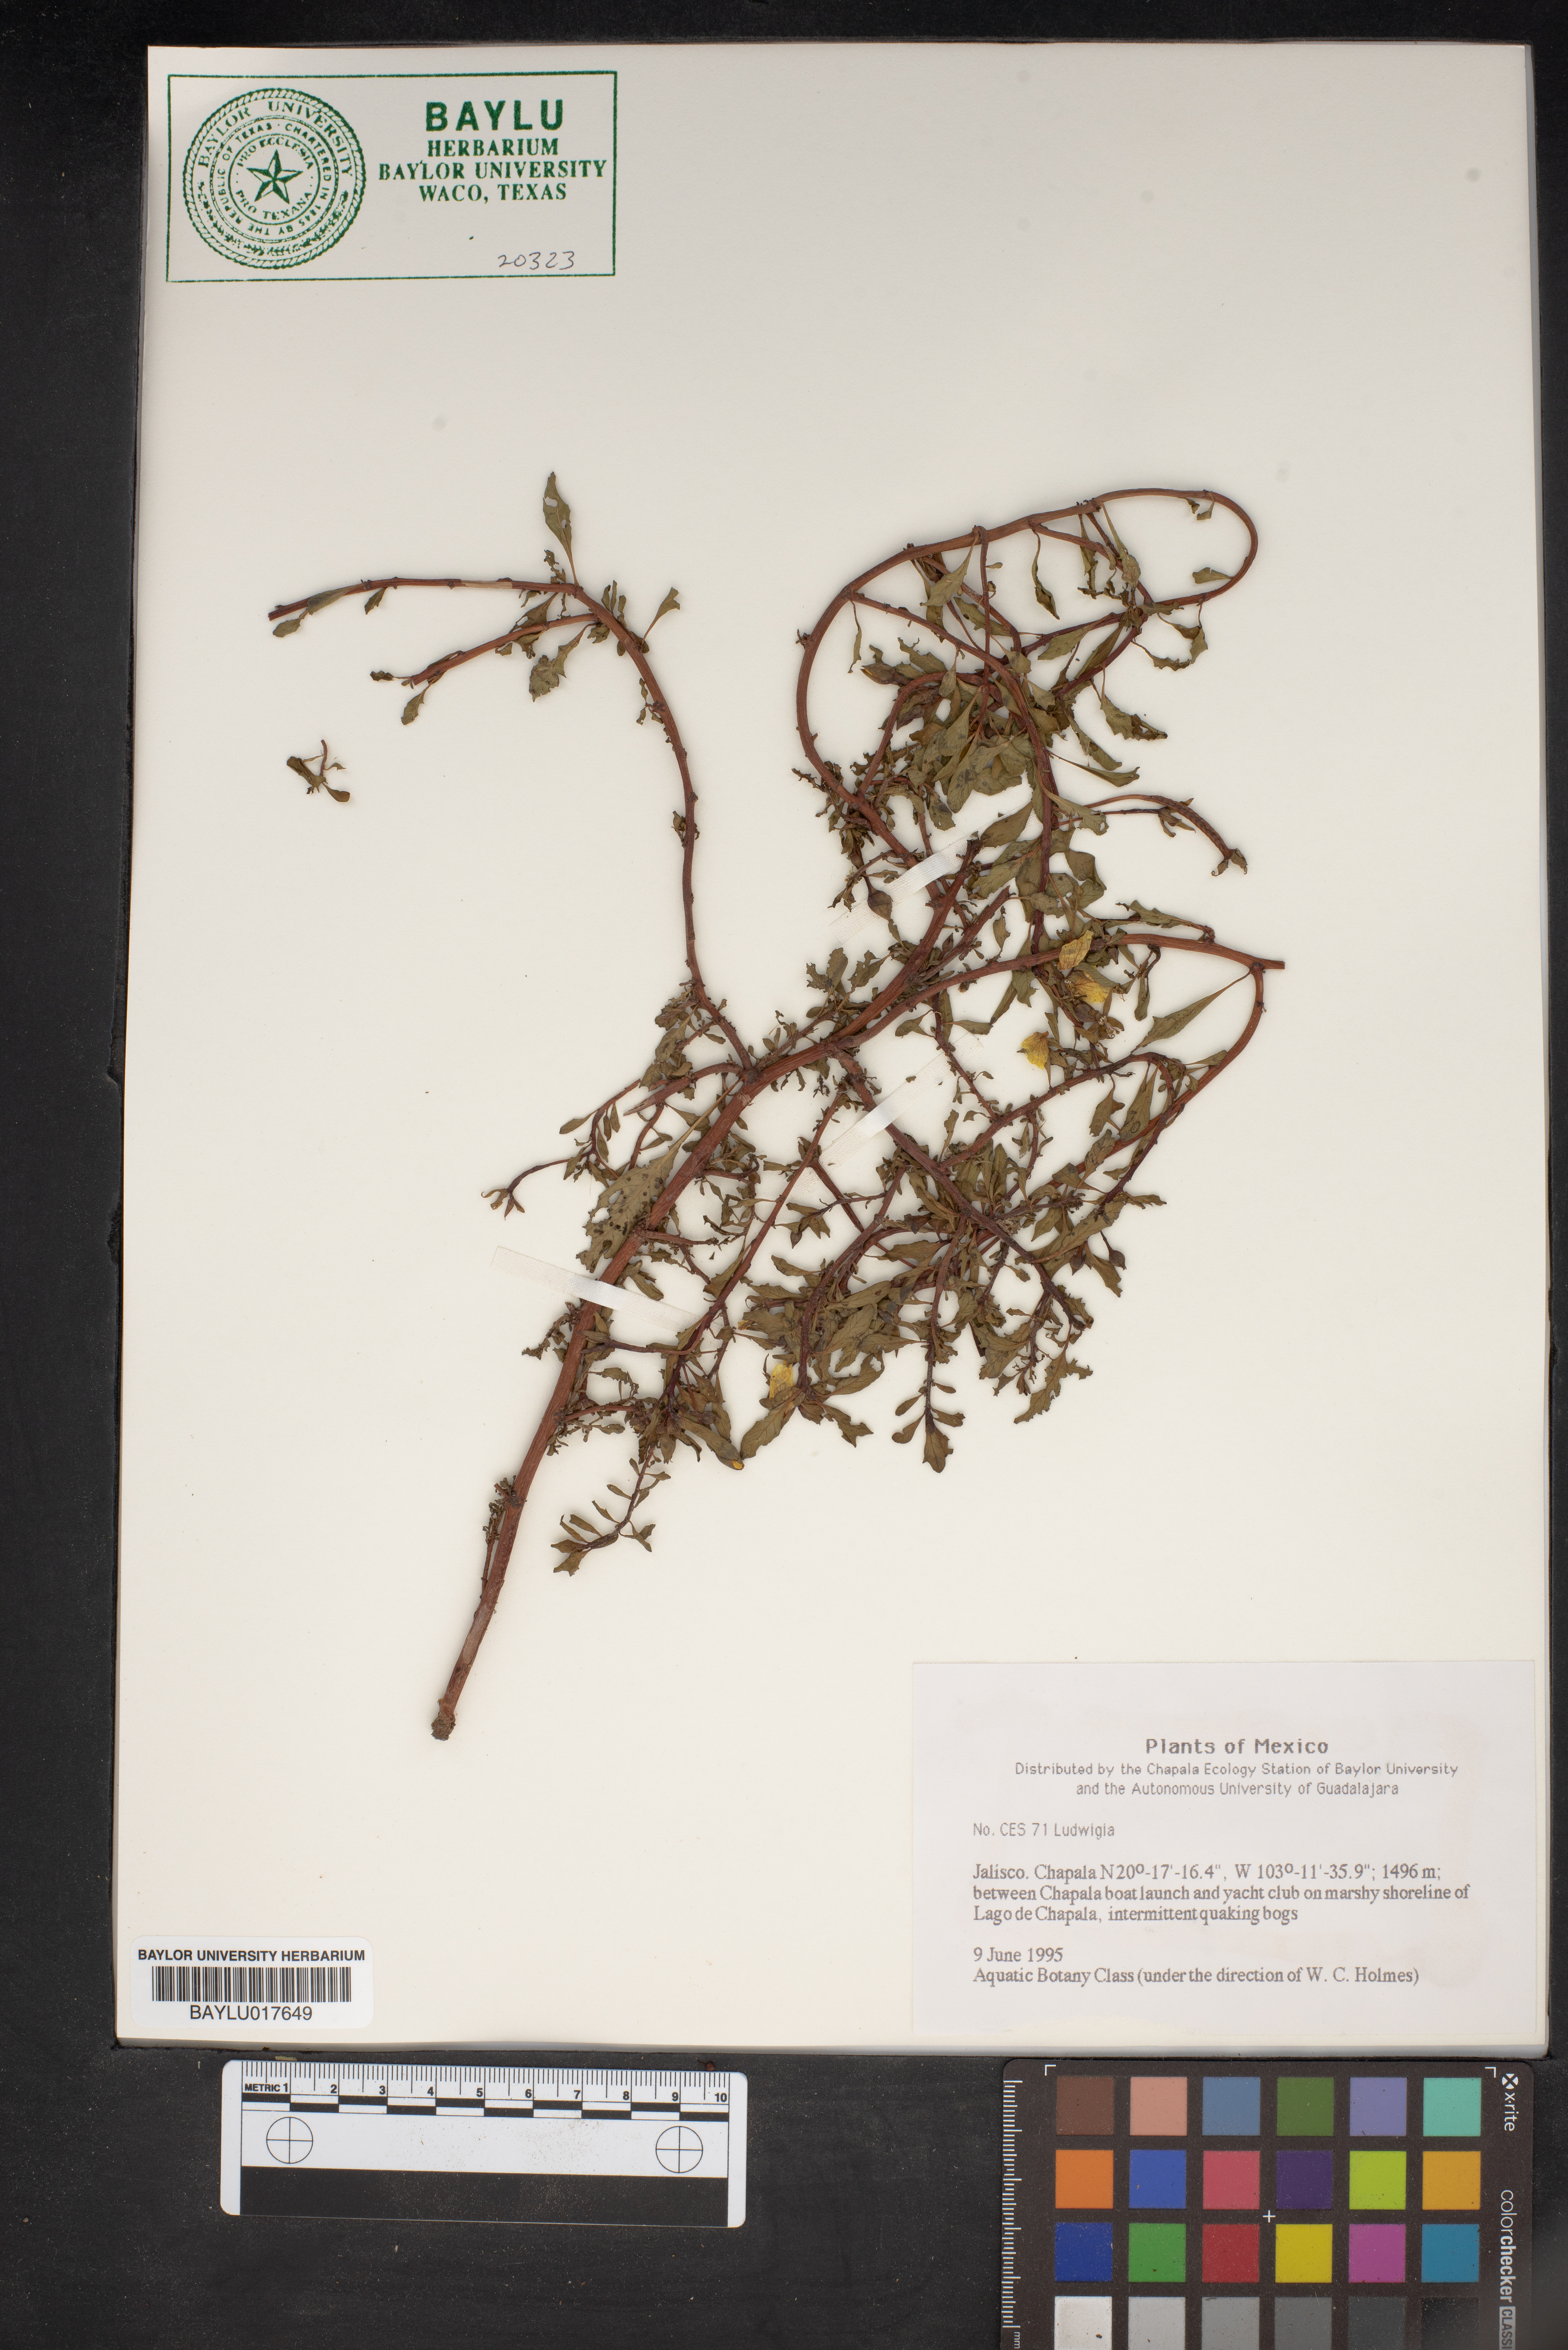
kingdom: Plantae
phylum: Tracheophyta
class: Magnoliopsida
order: Myrtales
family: Onagraceae
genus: Ludwigia
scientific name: Ludwigia
